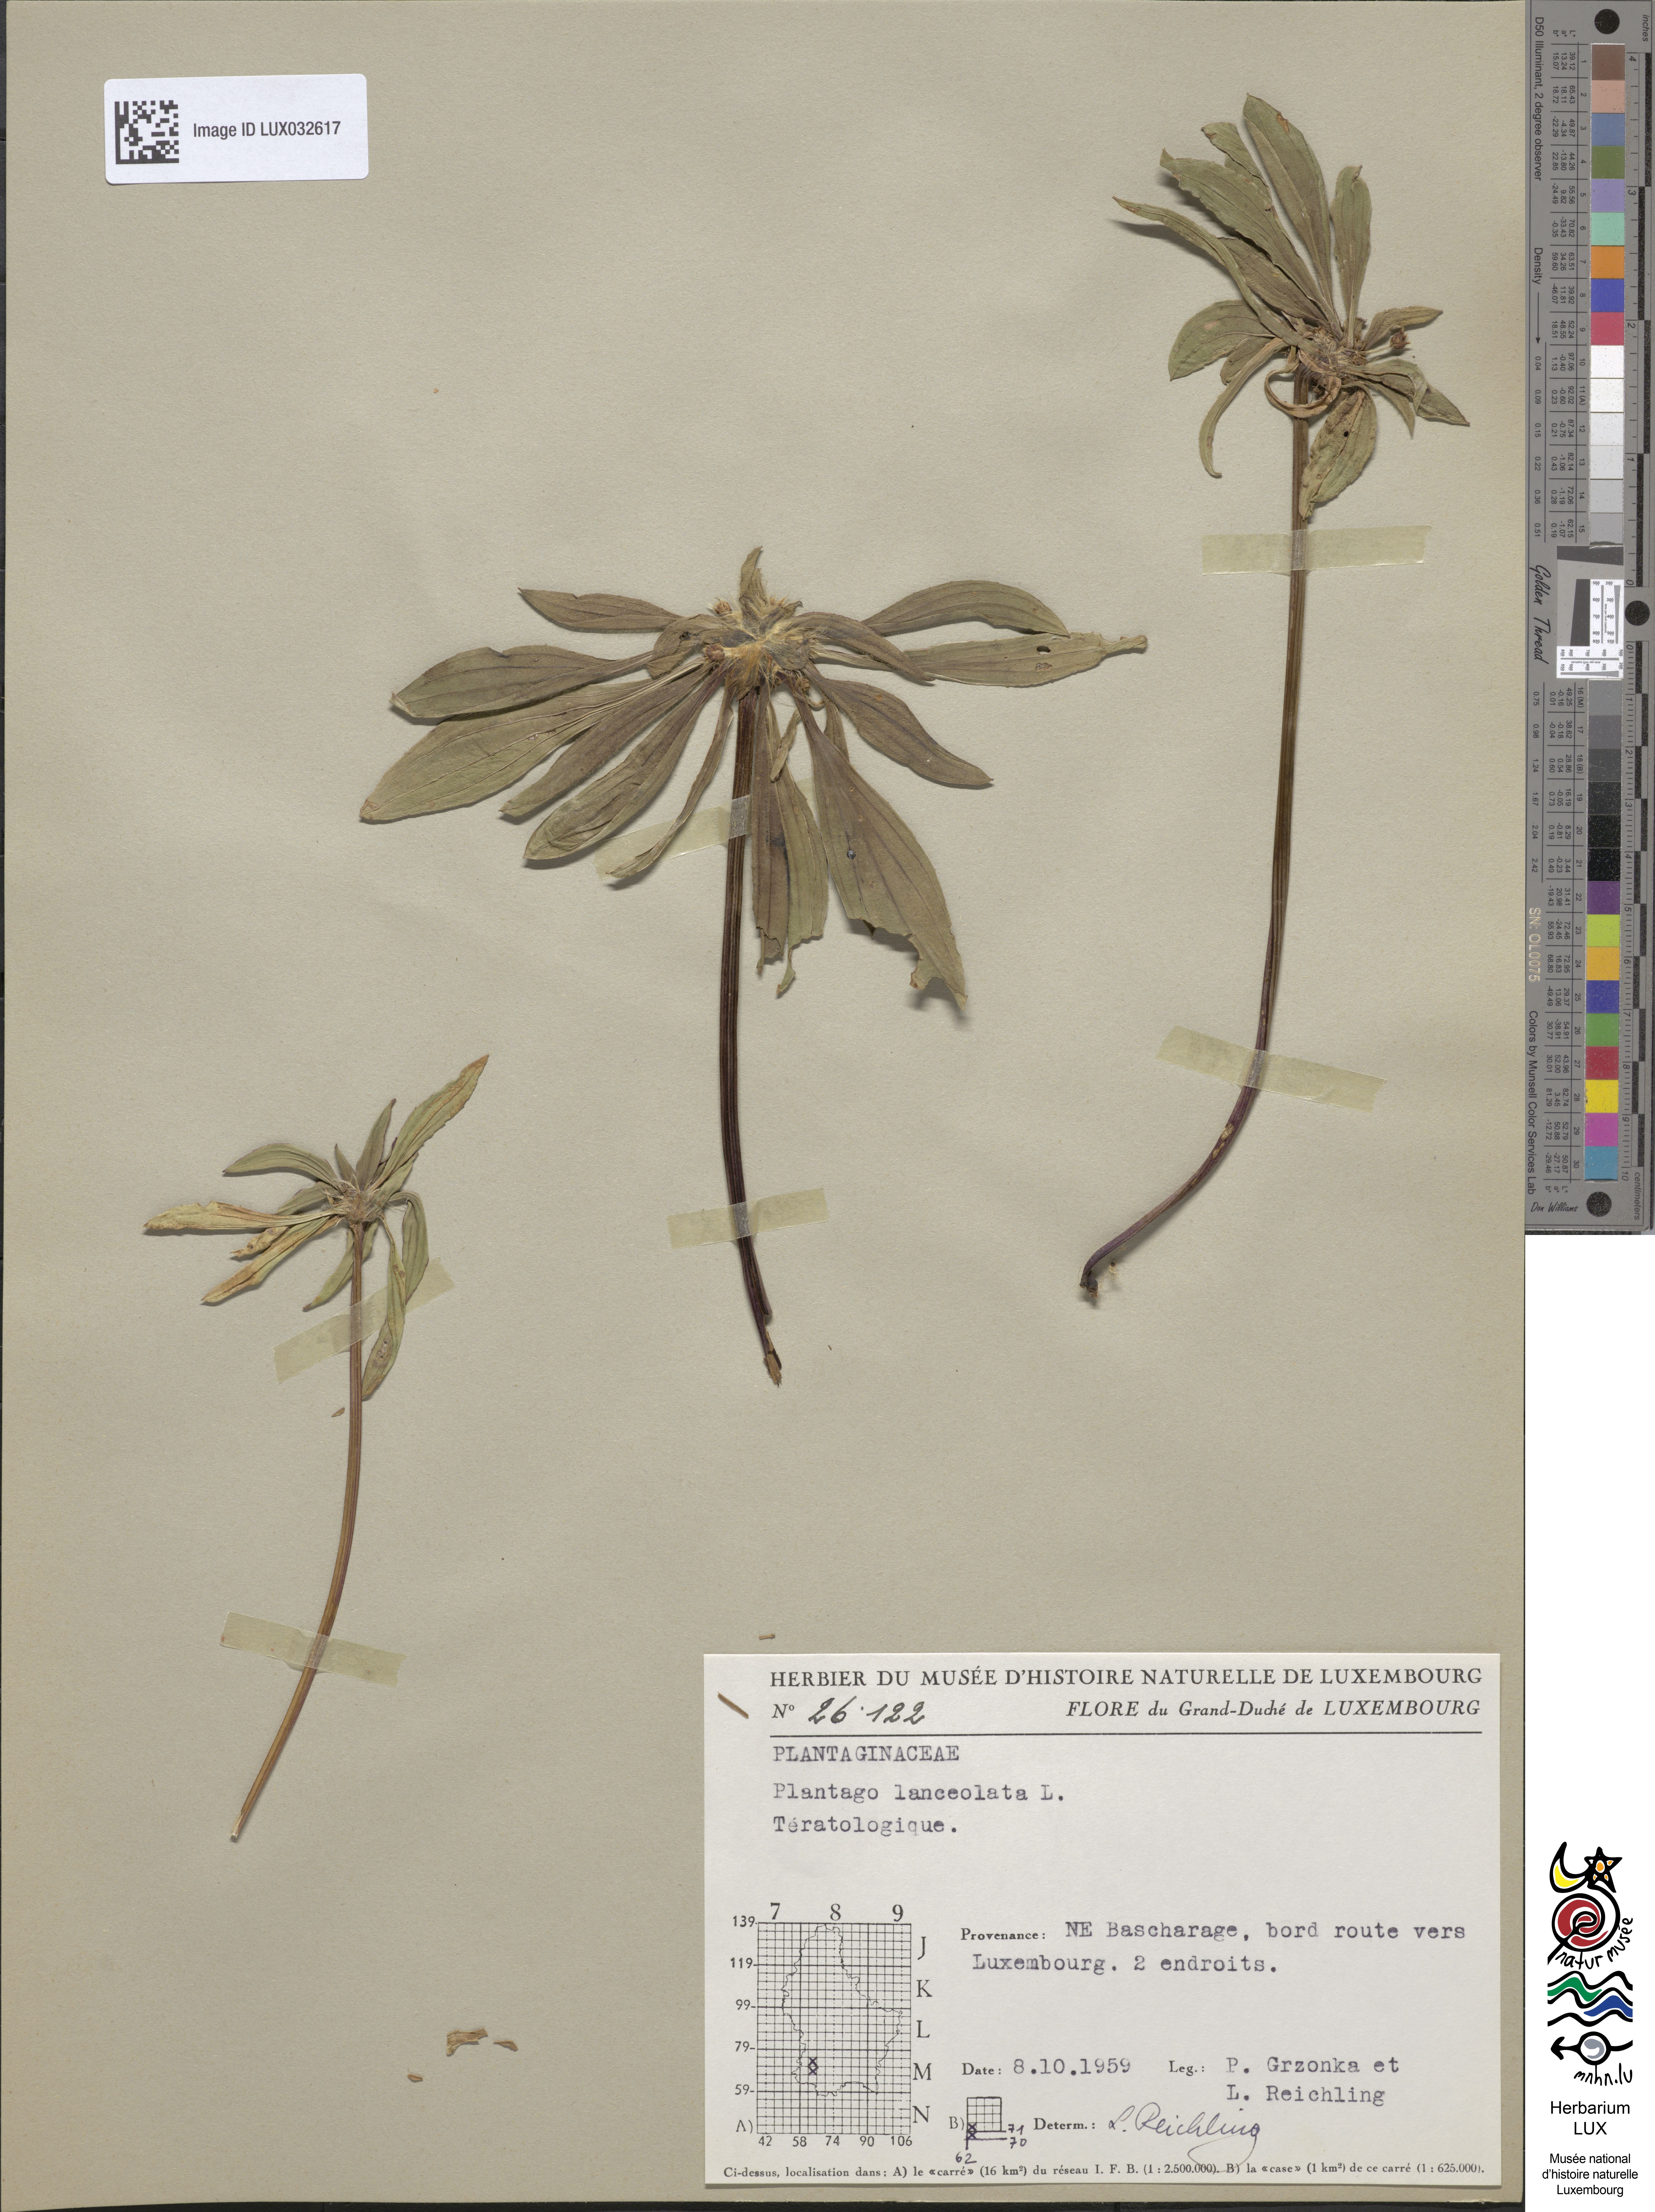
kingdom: Plantae
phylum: Tracheophyta
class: Magnoliopsida
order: Lamiales
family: Plantaginaceae
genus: Plantago
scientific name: Plantago lanceolata
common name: Ribwort plantain
